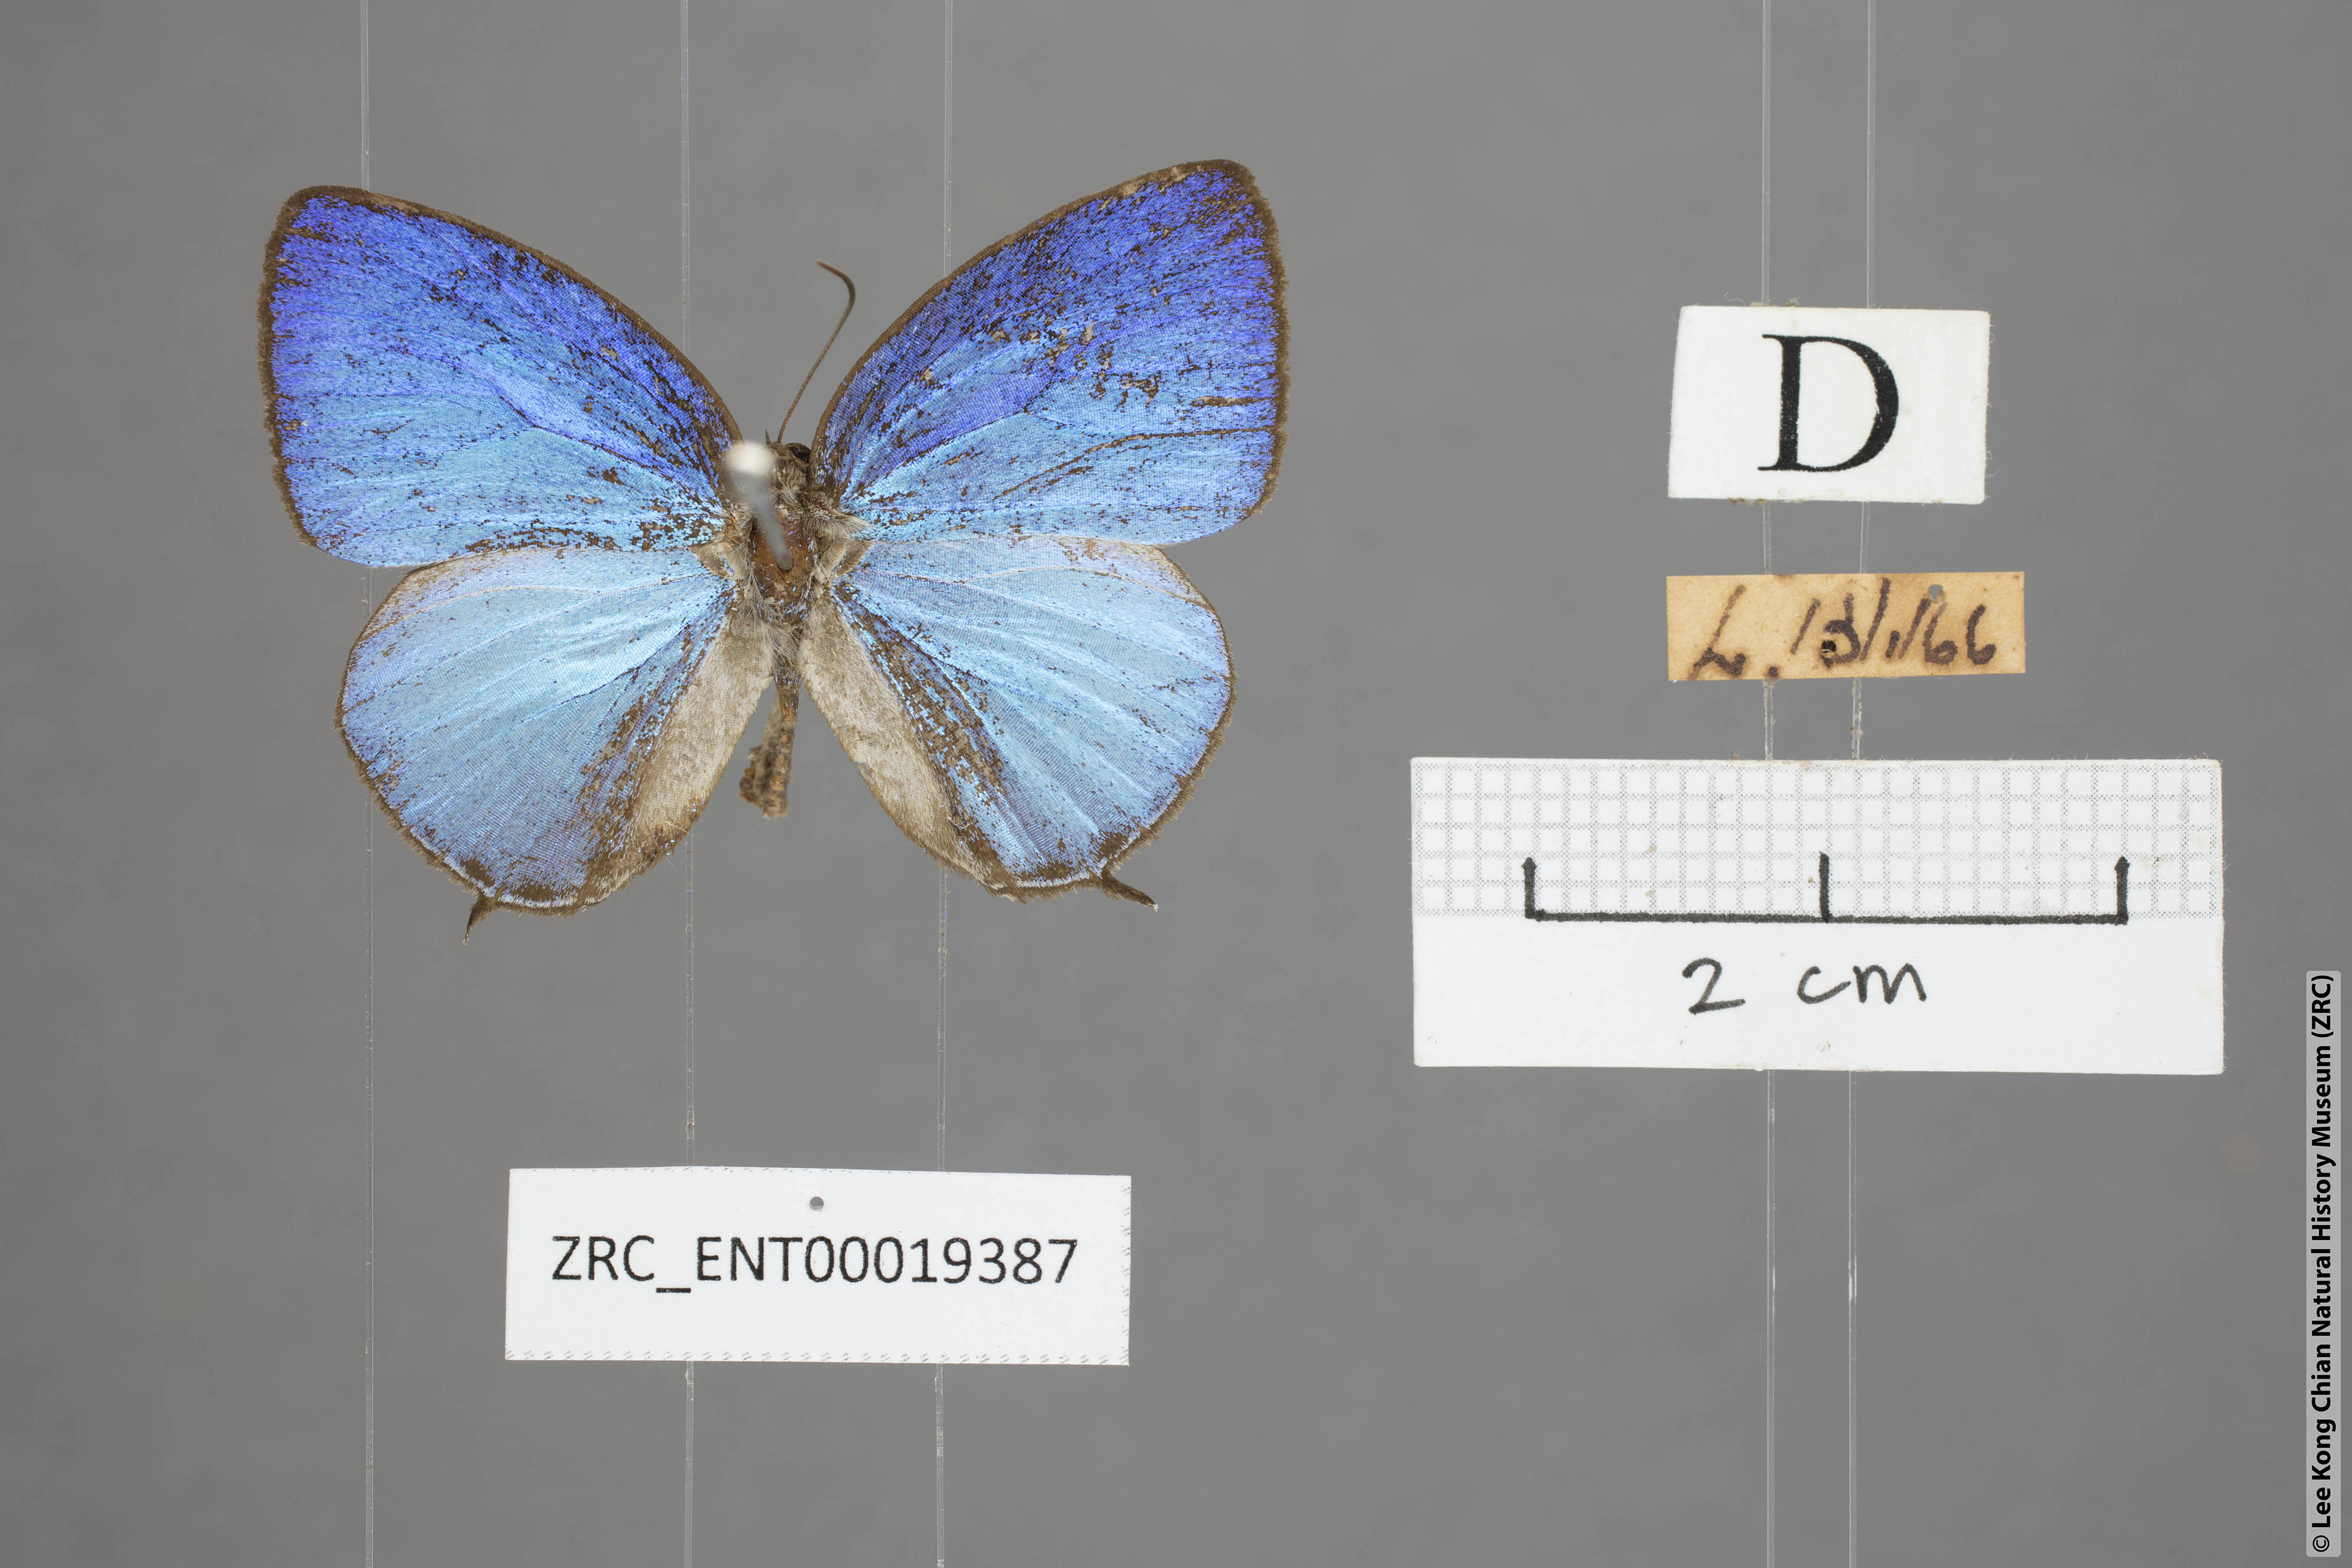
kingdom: Animalia
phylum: Arthropoda
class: Insecta
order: Lepidoptera
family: Lycaenidae
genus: Arhopala
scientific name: Arhopala democritus
